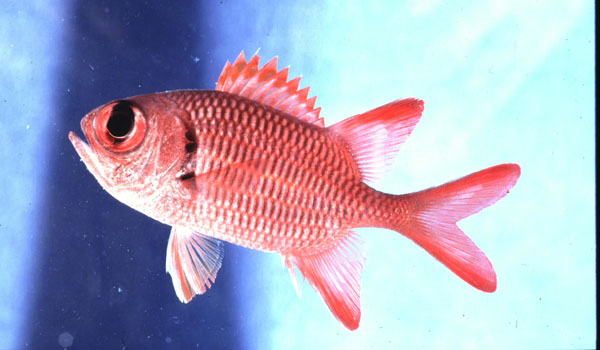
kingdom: Animalia
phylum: Chordata
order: Beryciformes
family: Holocentridae
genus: Myripristis
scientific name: Myripristis
